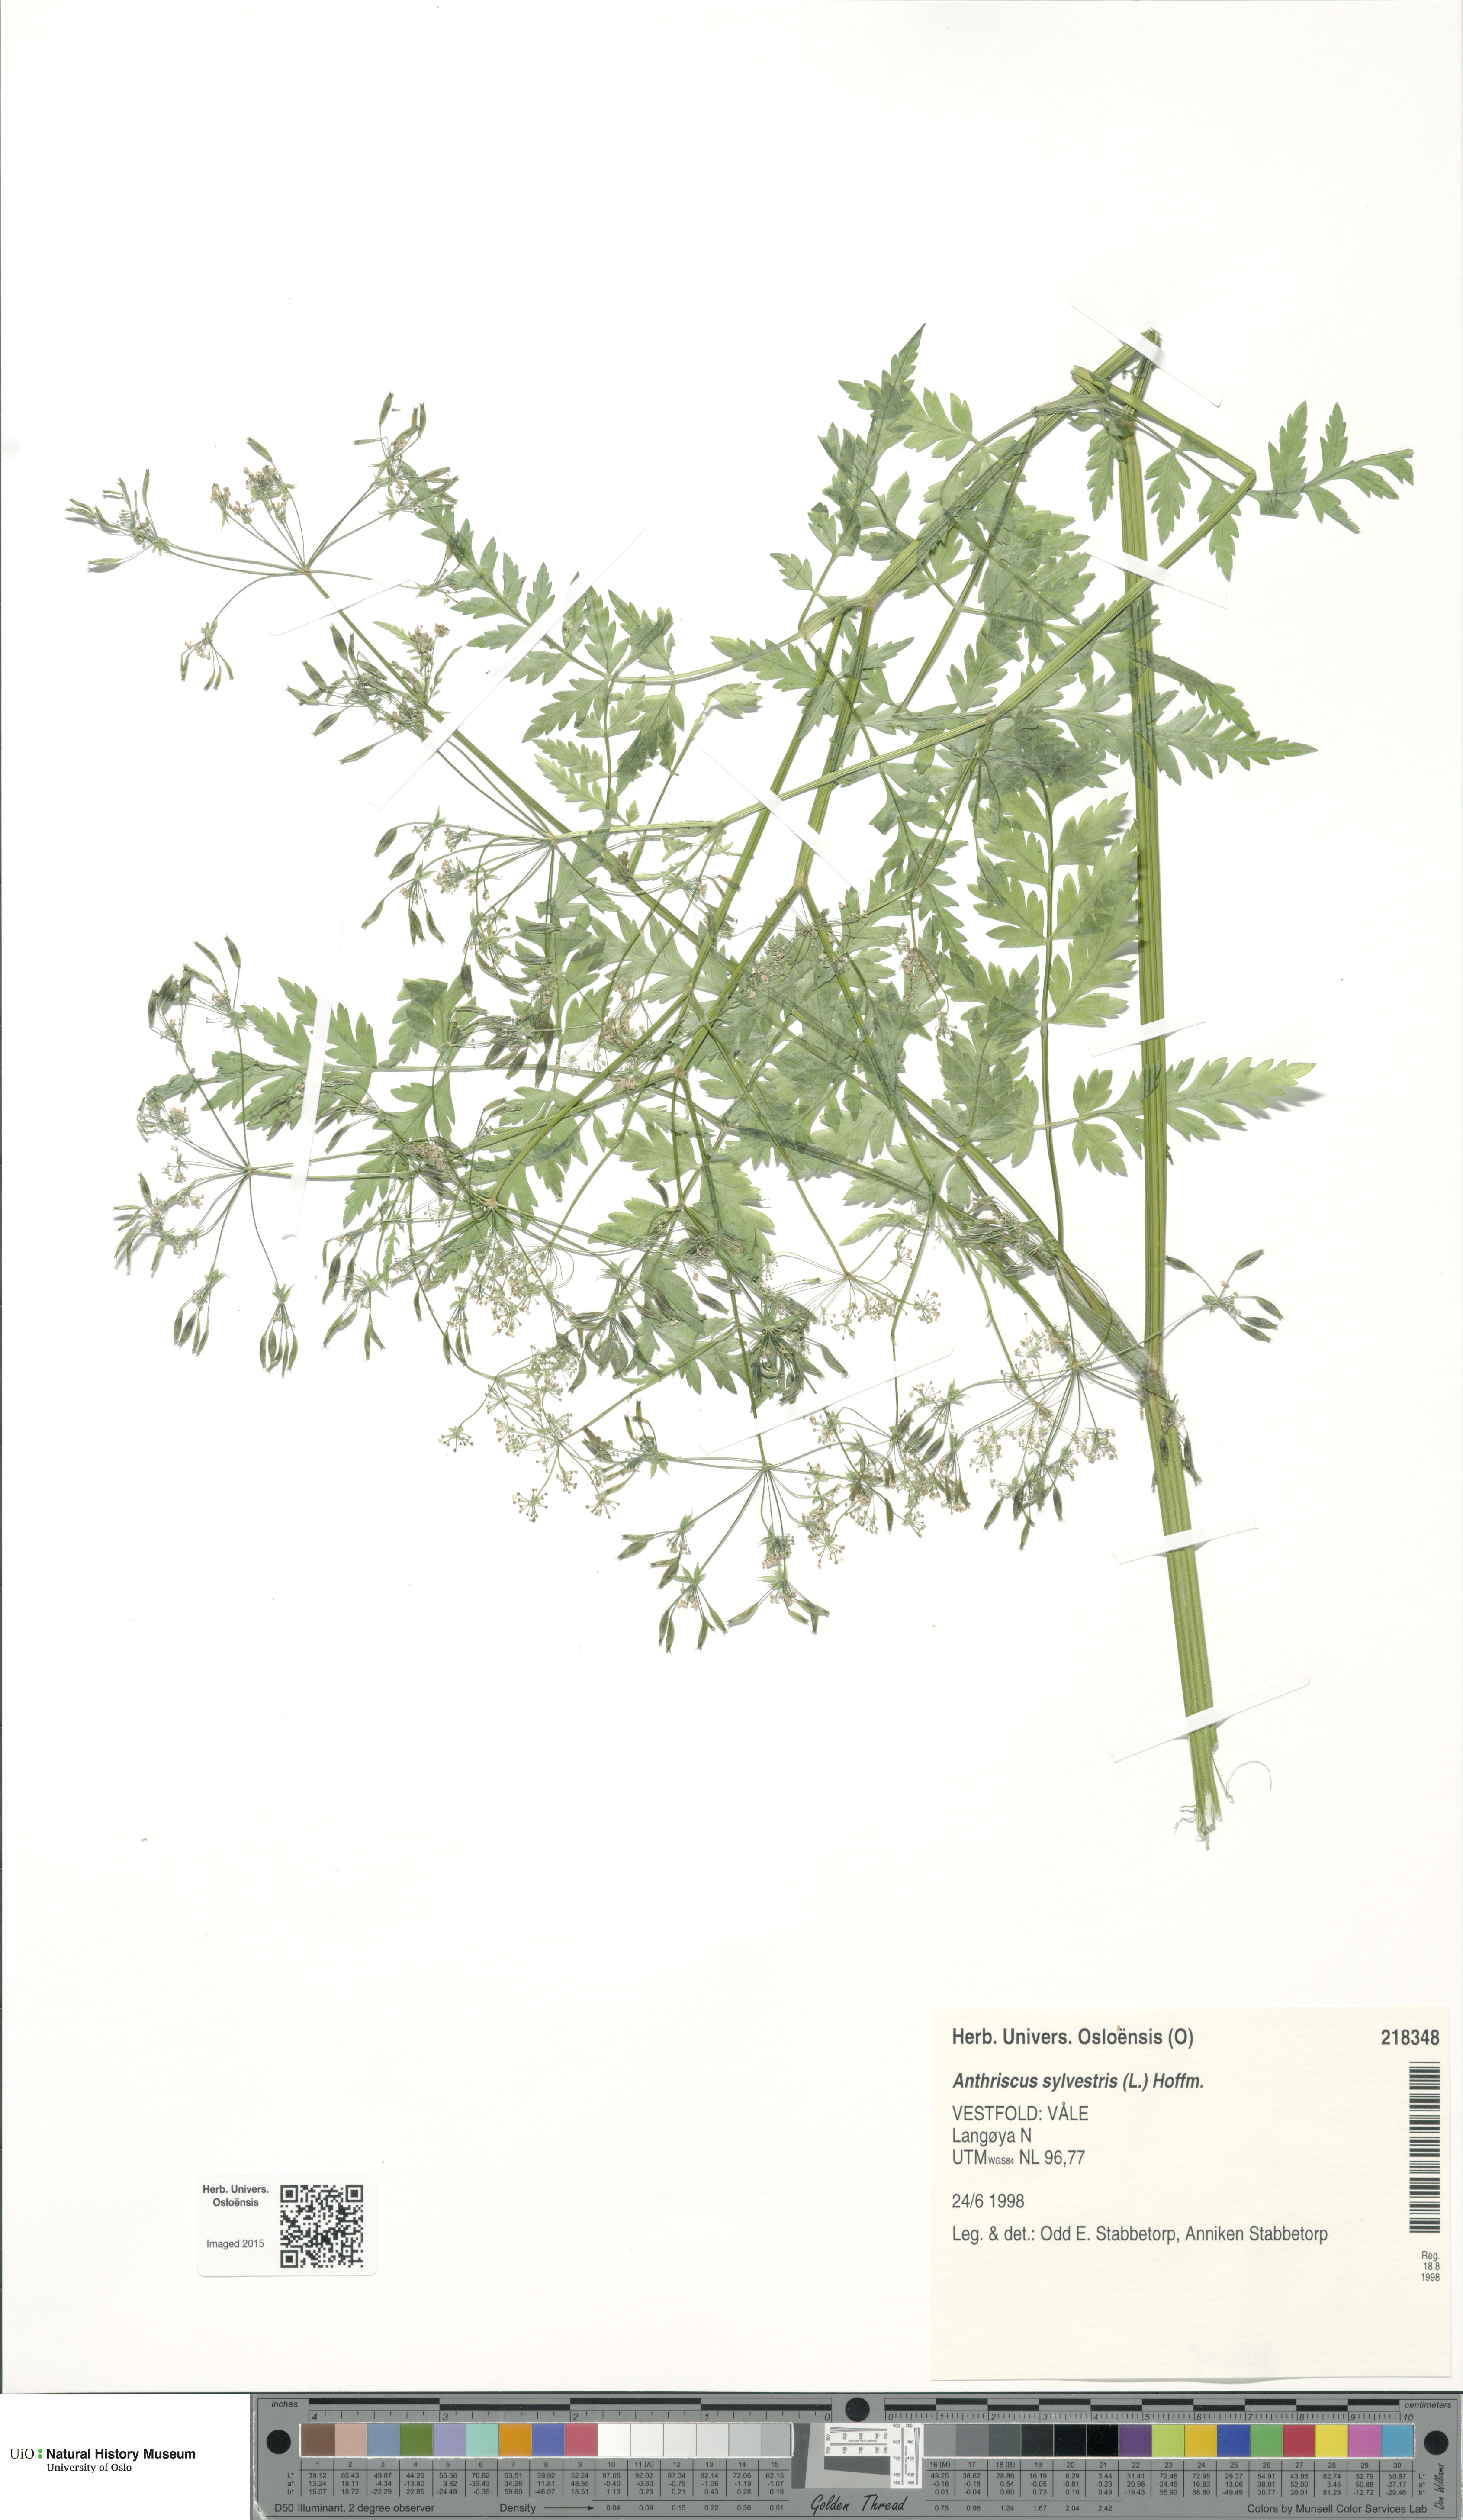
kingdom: Plantae
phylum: Tracheophyta
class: Magnoliopsida
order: Apiales
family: Apiaceae
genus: Anthriscus
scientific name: Anthriscus sylvestris
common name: Cow parsley
